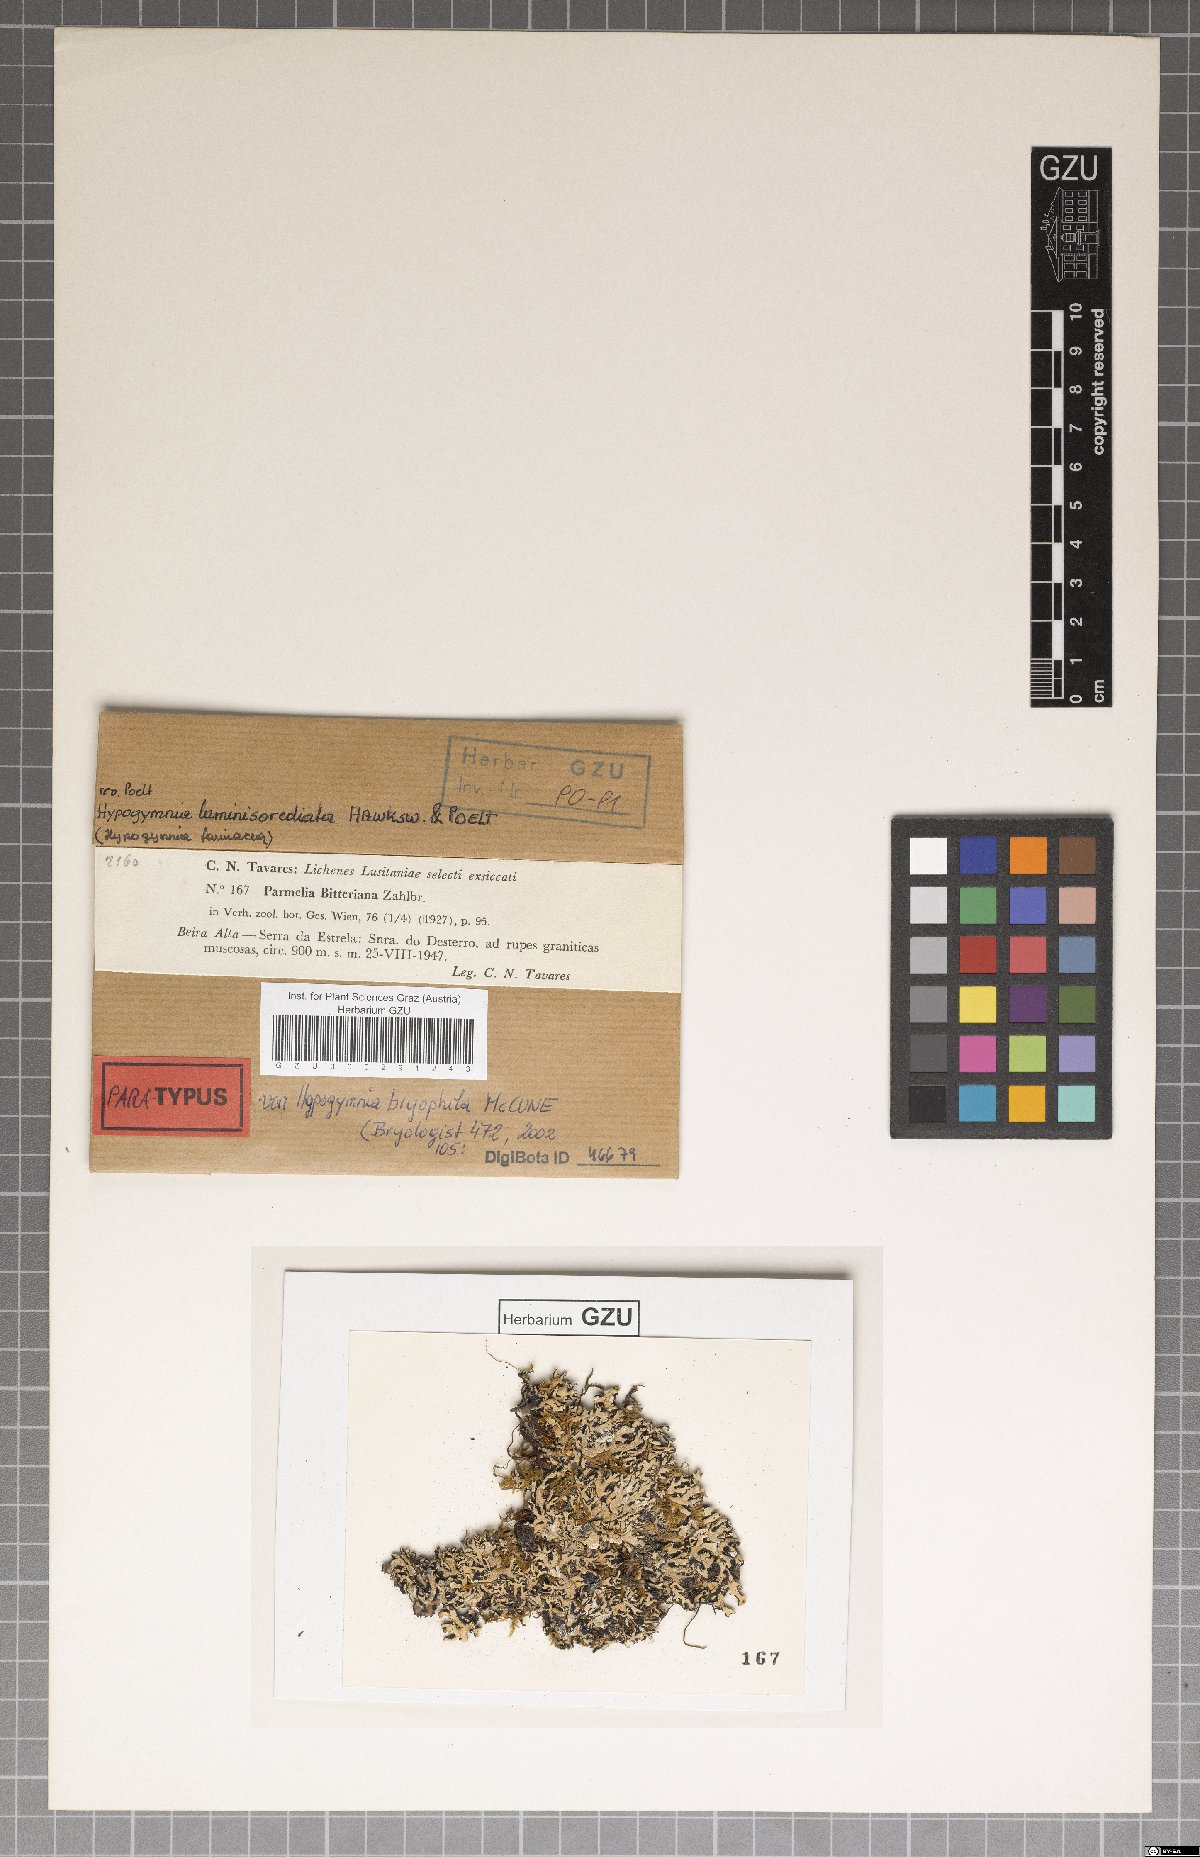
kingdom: Fungi
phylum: Ascomycota
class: Lecanoromycetes
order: Lecanorales
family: Parmeliaceae
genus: Hypogymnia
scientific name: Hypogymnia bryophila
